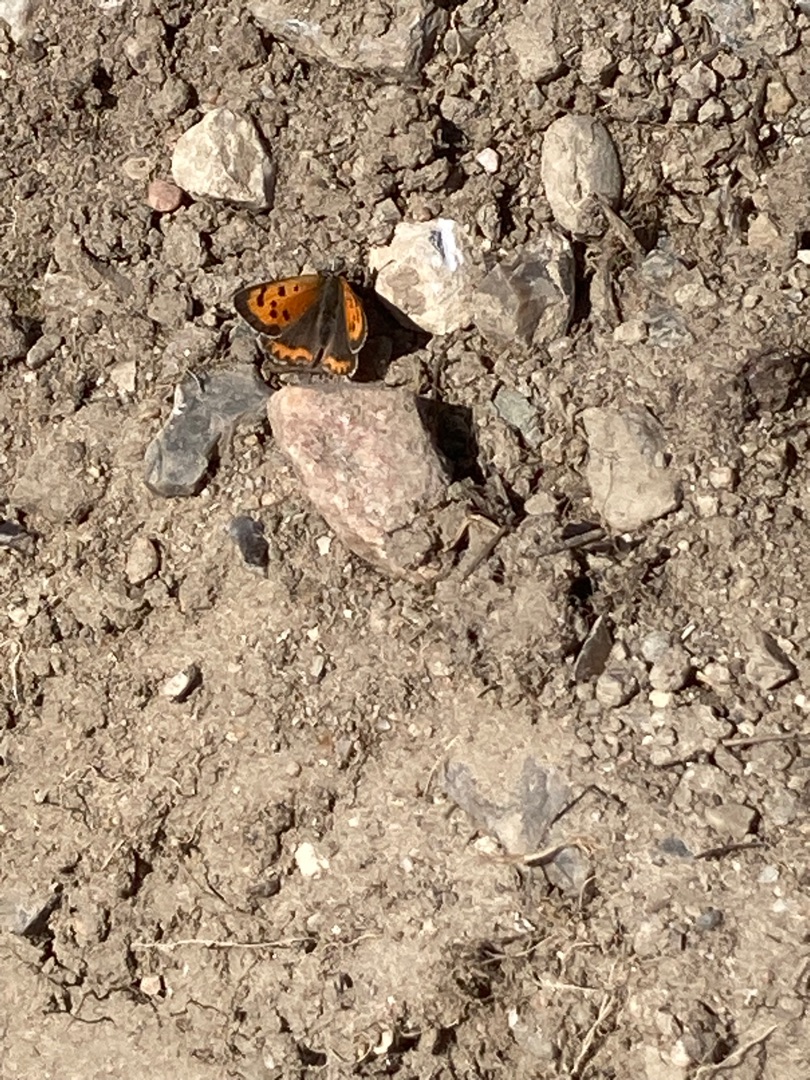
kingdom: Animalia
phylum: Arthropoda
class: Insecta
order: Lepidoptera
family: Lycaenidae
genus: Lycaena
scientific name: Lycaena phlaeas
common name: Lille ildfugl
